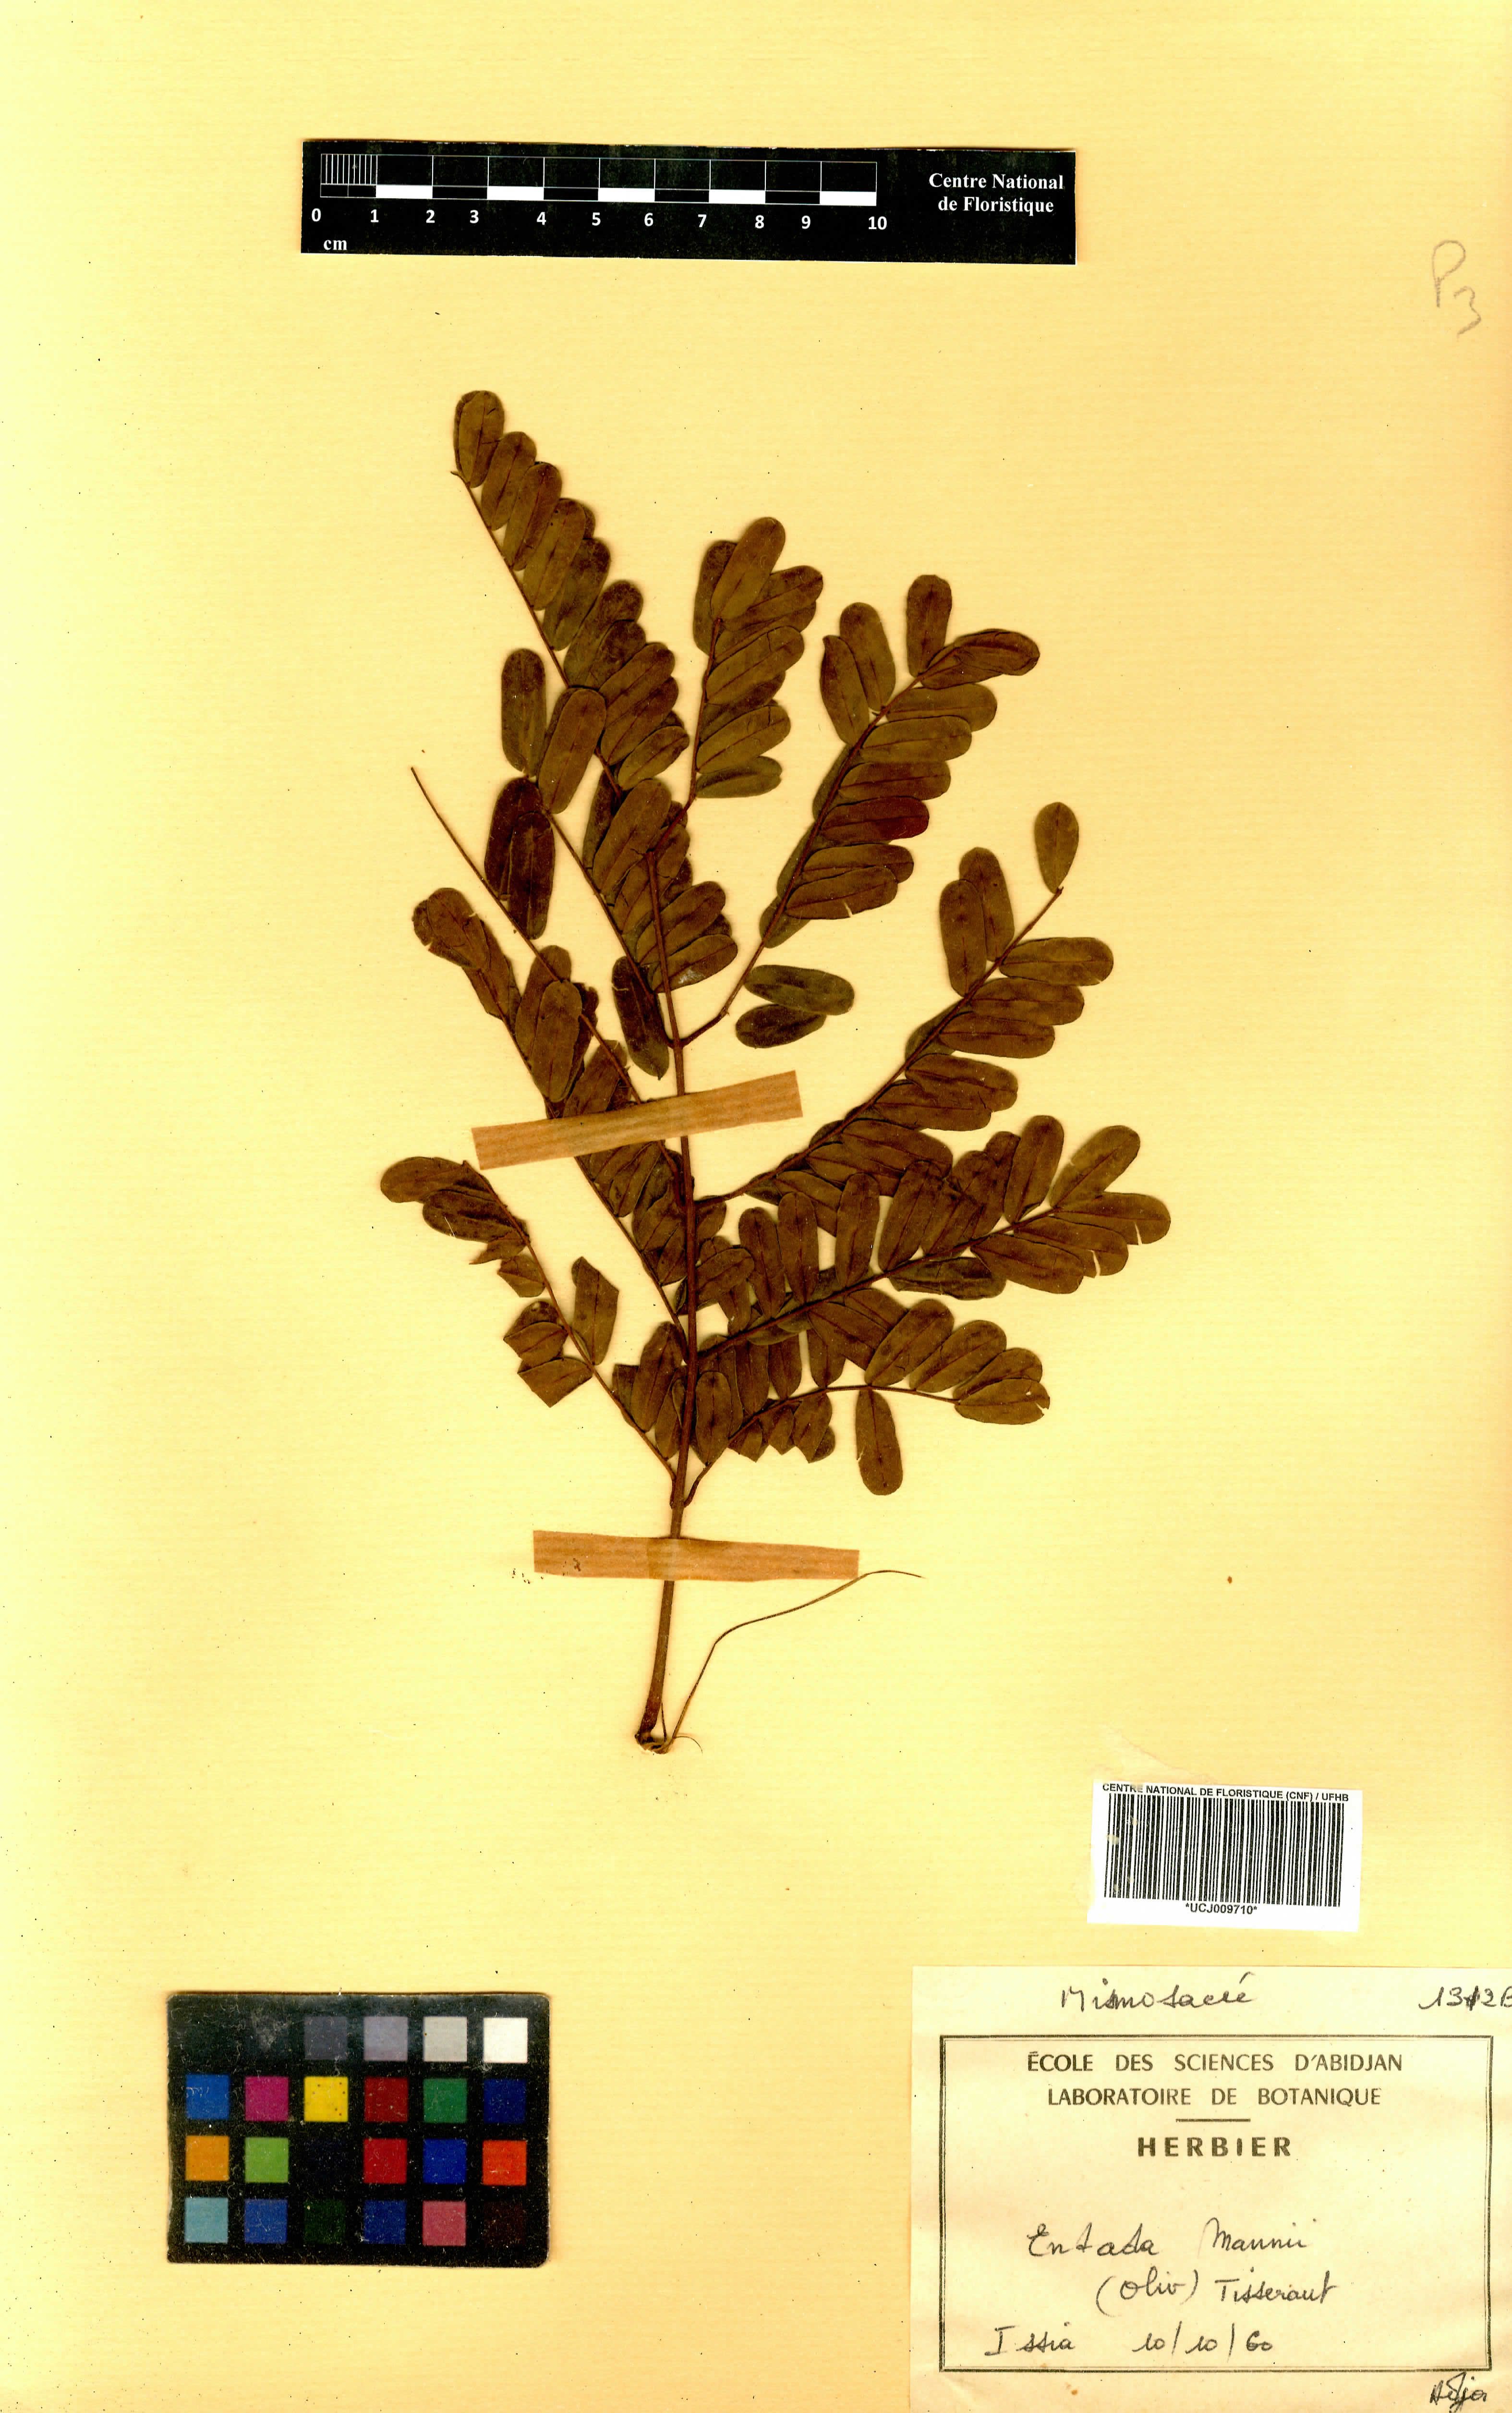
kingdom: Plantae
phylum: Tracheophyta
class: Magnoliopsida
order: Fabales
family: Fabaceae
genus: Entada
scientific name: Entada mannii
